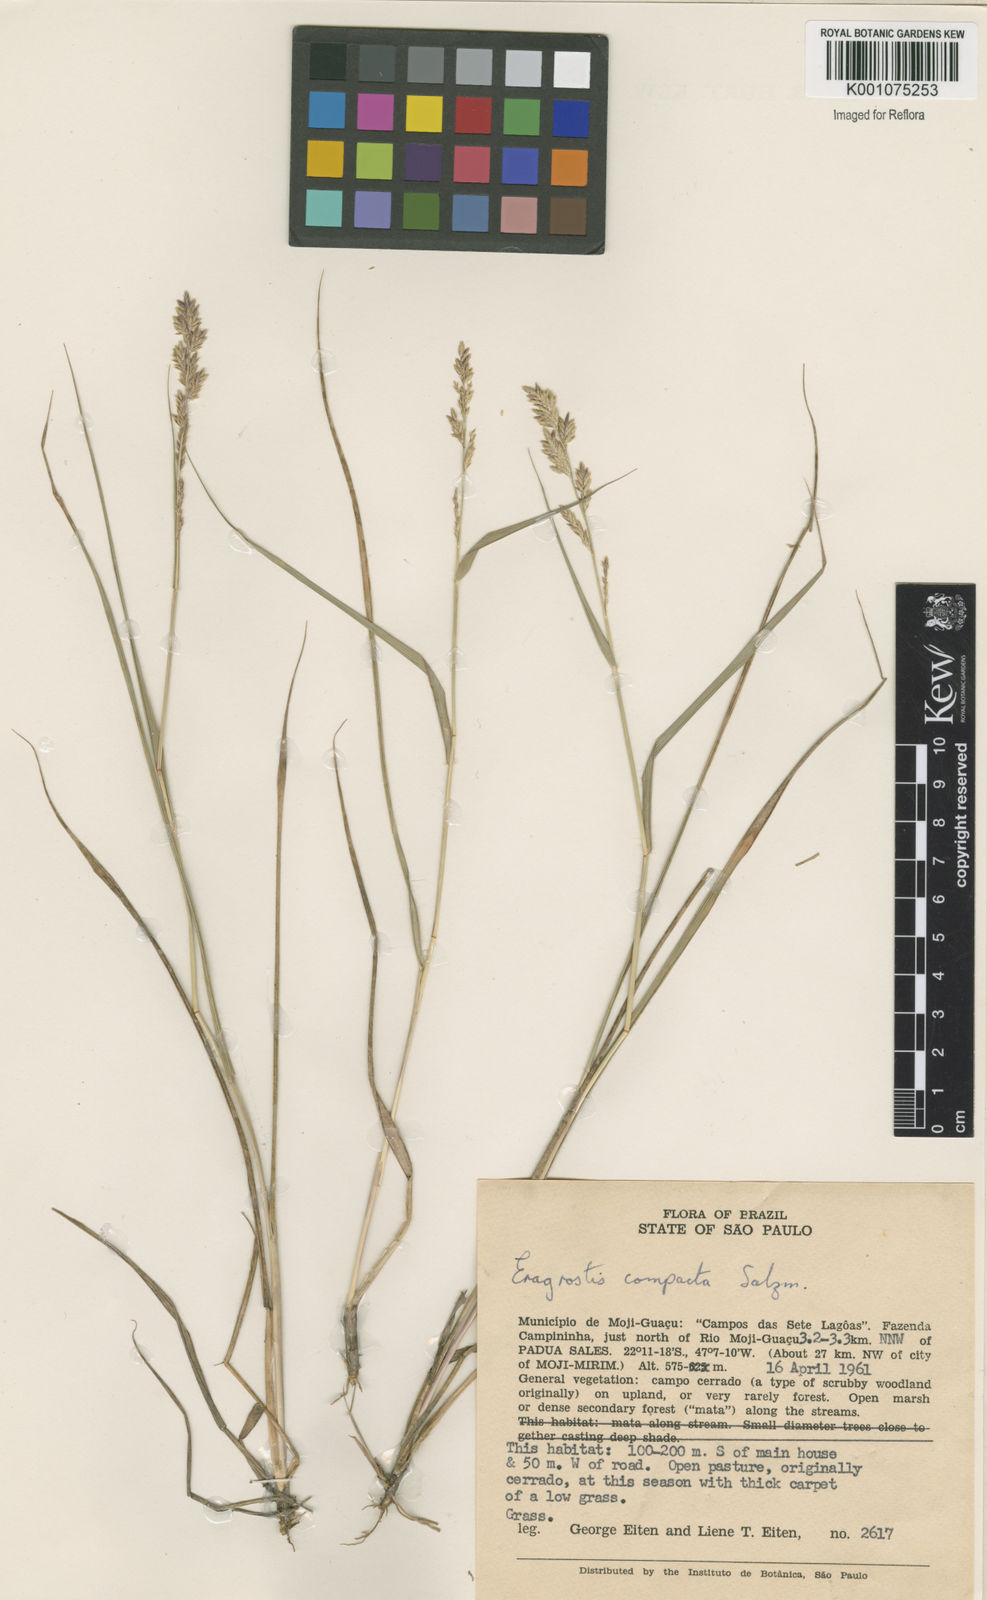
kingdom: Plantae
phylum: Tracheophyta
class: Liliopsida
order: Poales
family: Poaceae
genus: Eragrostis
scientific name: Eragrostis secundiflora
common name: Red love grass
